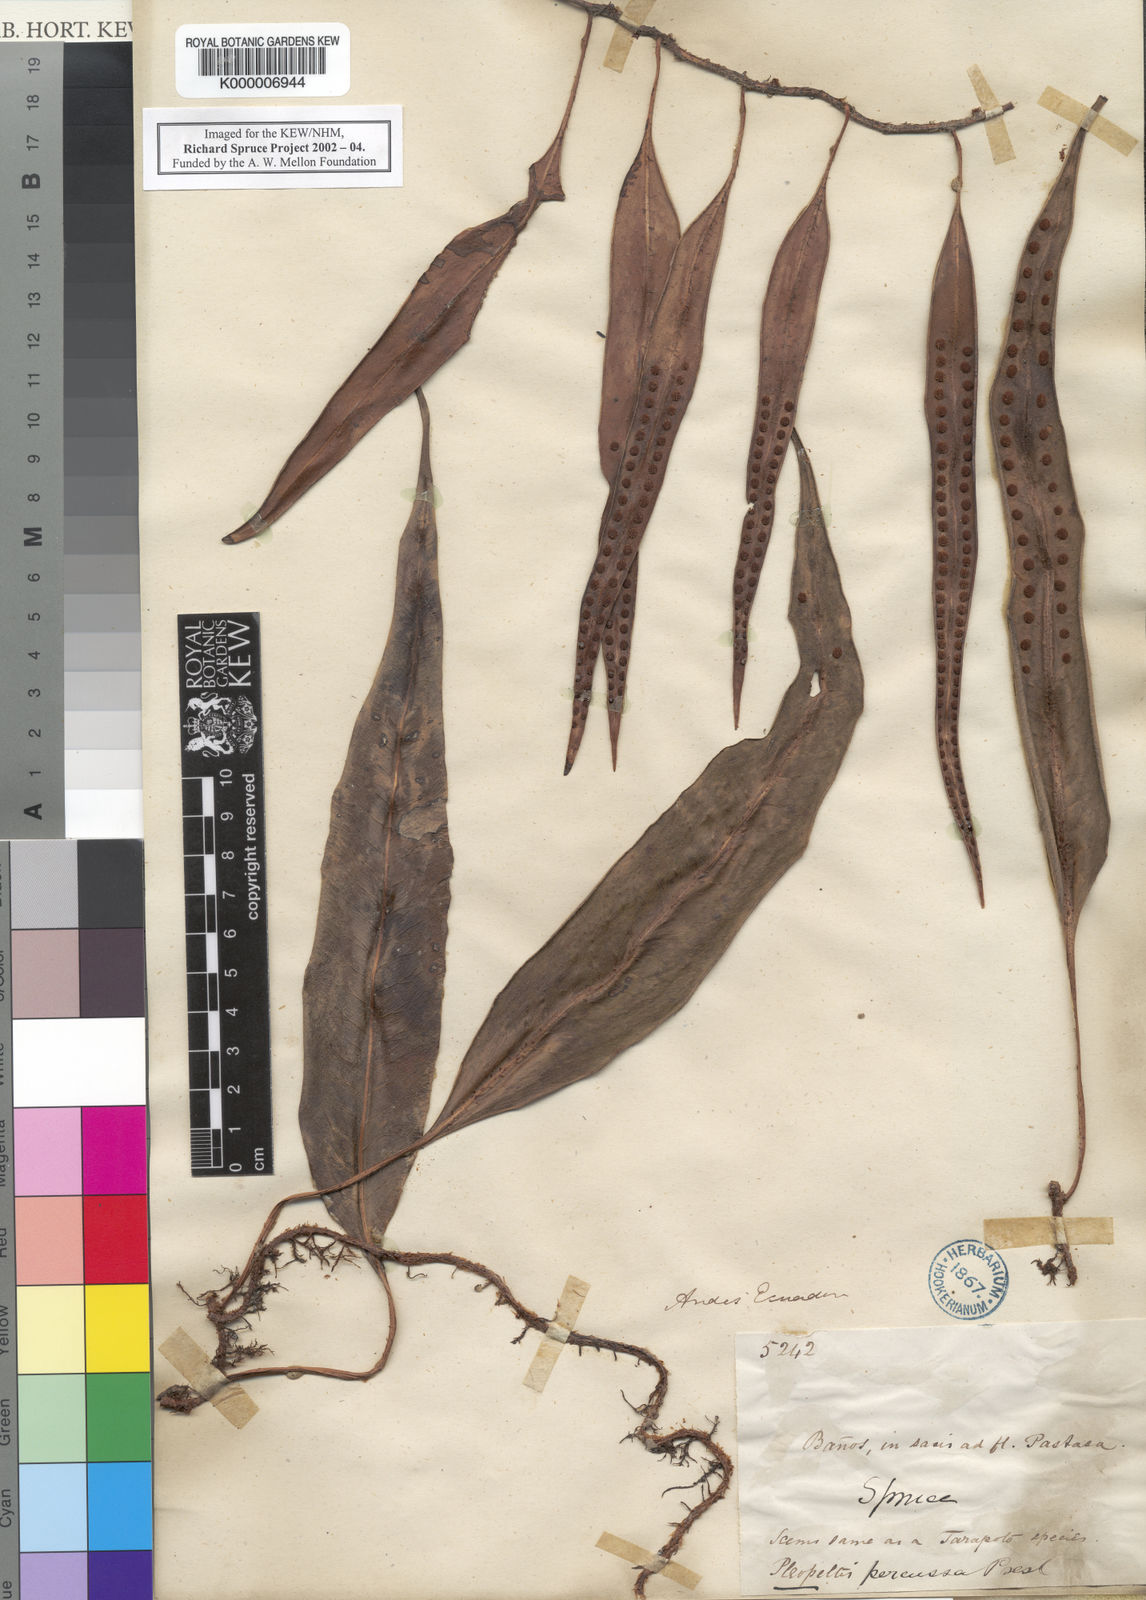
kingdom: Plantae
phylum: Tracheophyta
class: Polypodiopsida
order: Polypodiales
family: Polypodiaceae
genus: Microgramma
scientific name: Microgramma percussa
